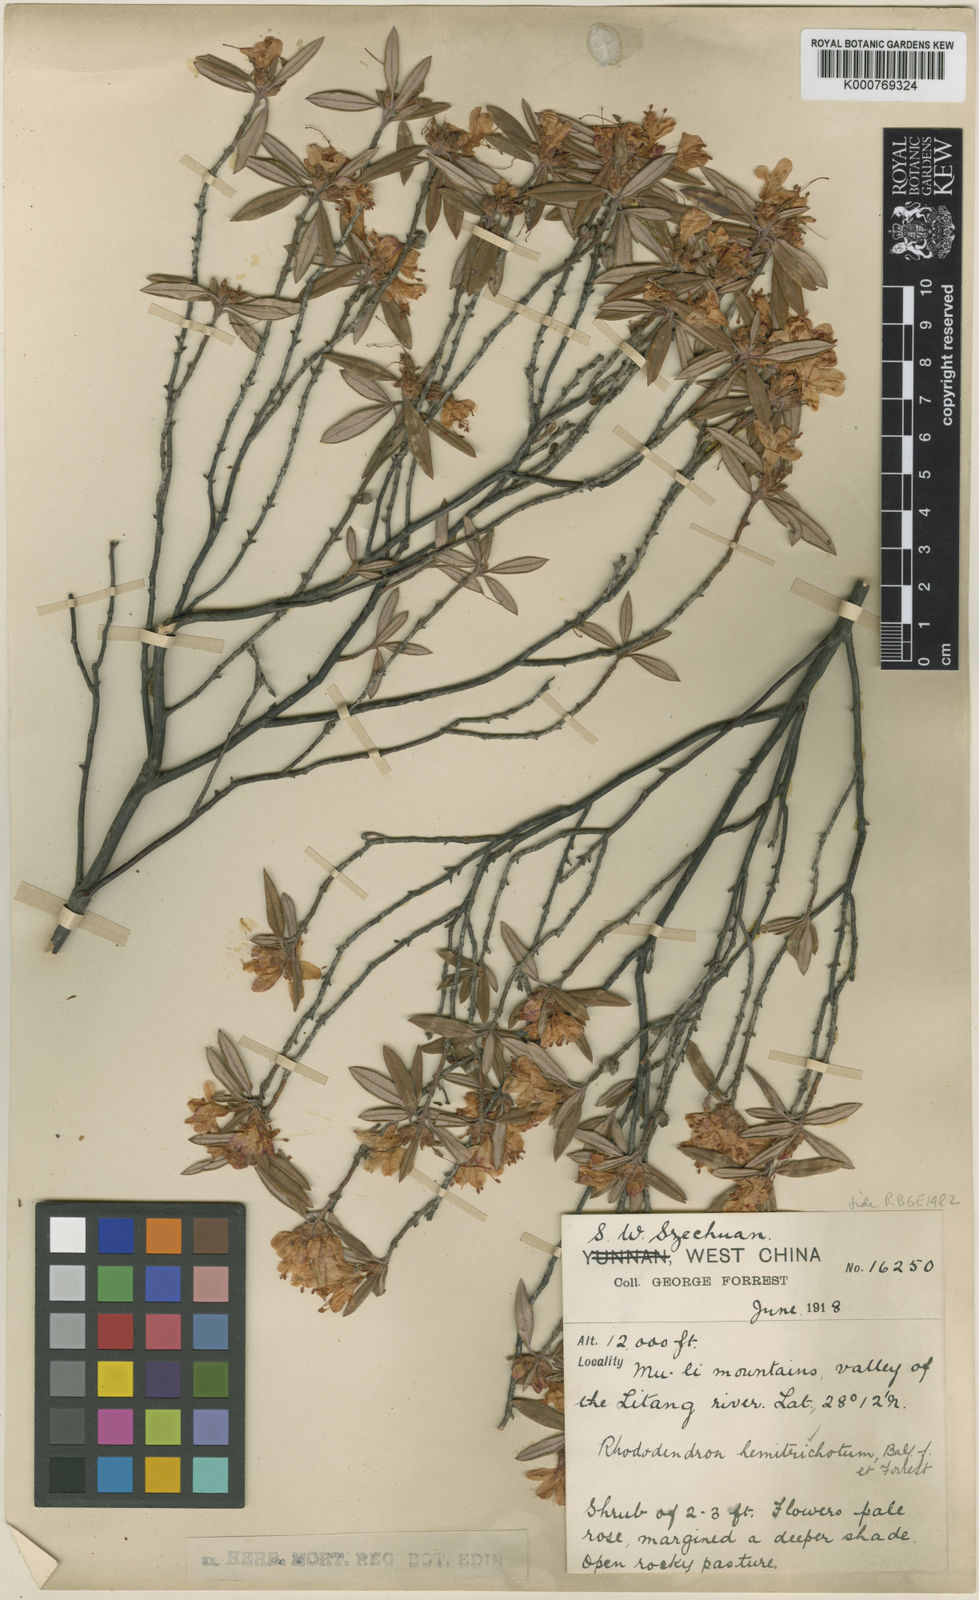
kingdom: Plantae
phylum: Tracheophyta
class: Magnoliopsida
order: Ericales
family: Ericaceae
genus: Rhododendron
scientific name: Rhododendron hemitrichotum
